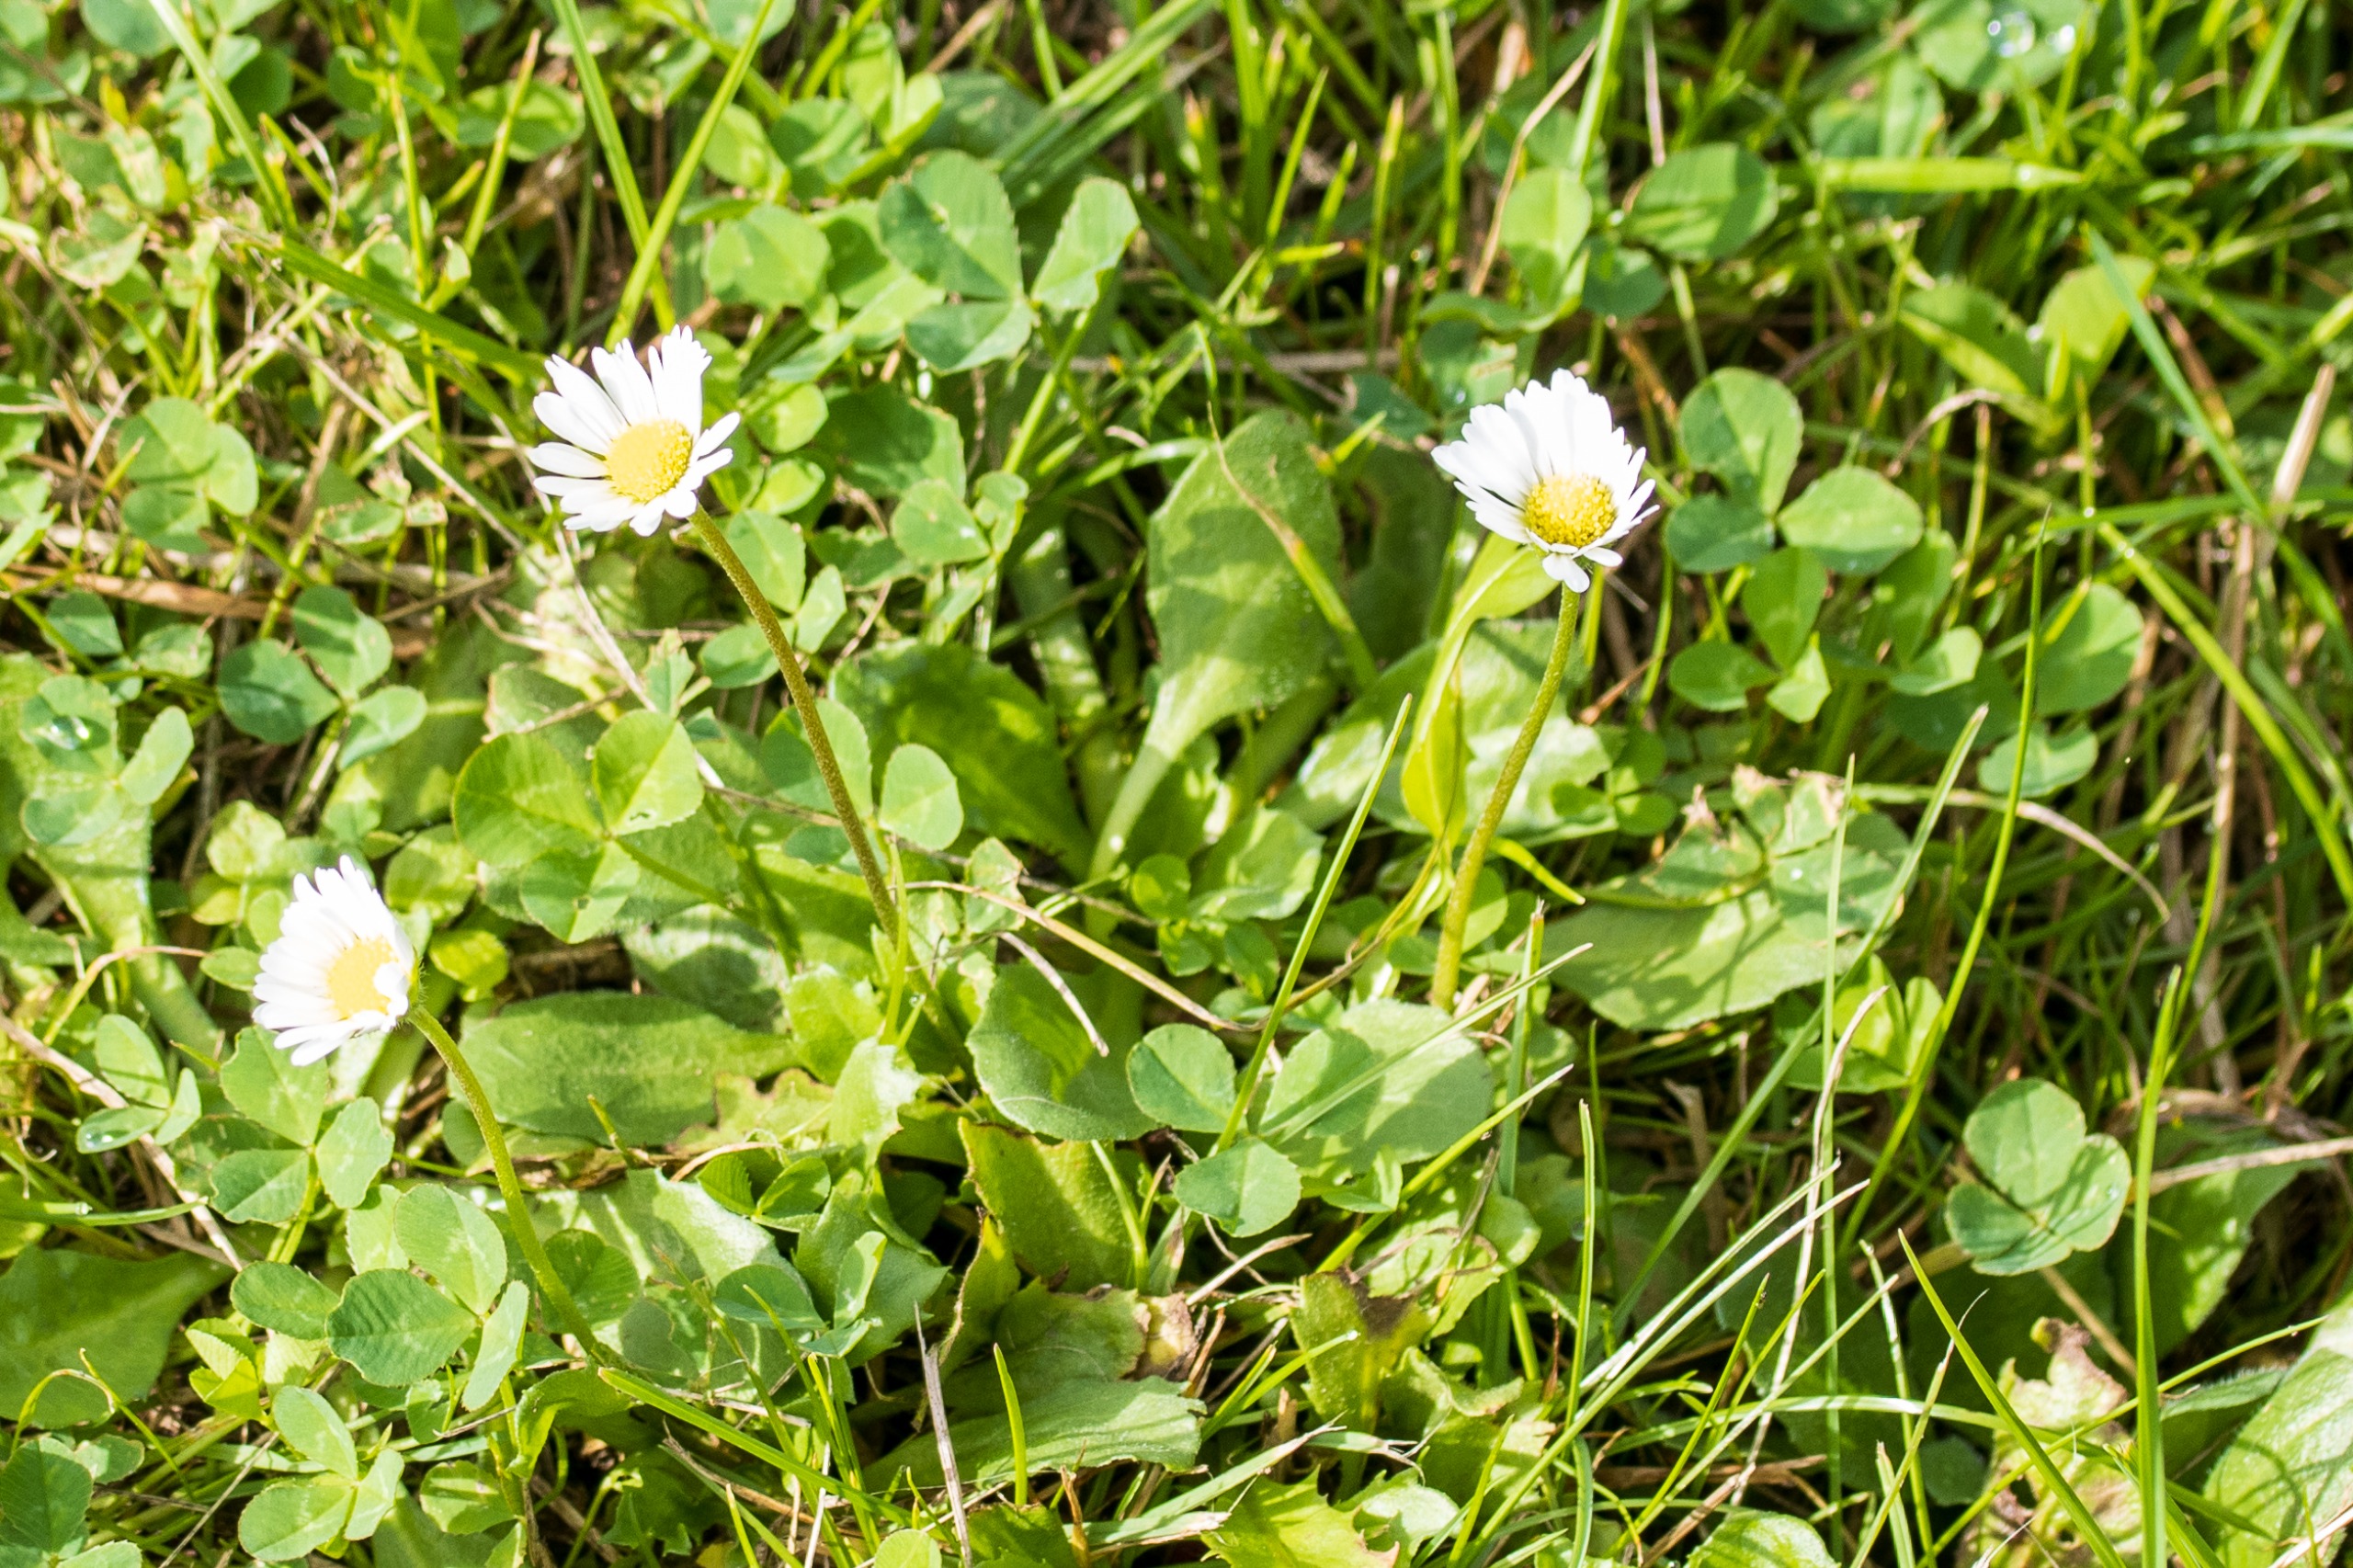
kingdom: Plantae
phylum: Tracheophyta
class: Magnoliopsida
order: Asterales
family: Asteraceae
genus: Bellis
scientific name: Bellis perennis
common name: Tusindfryd
